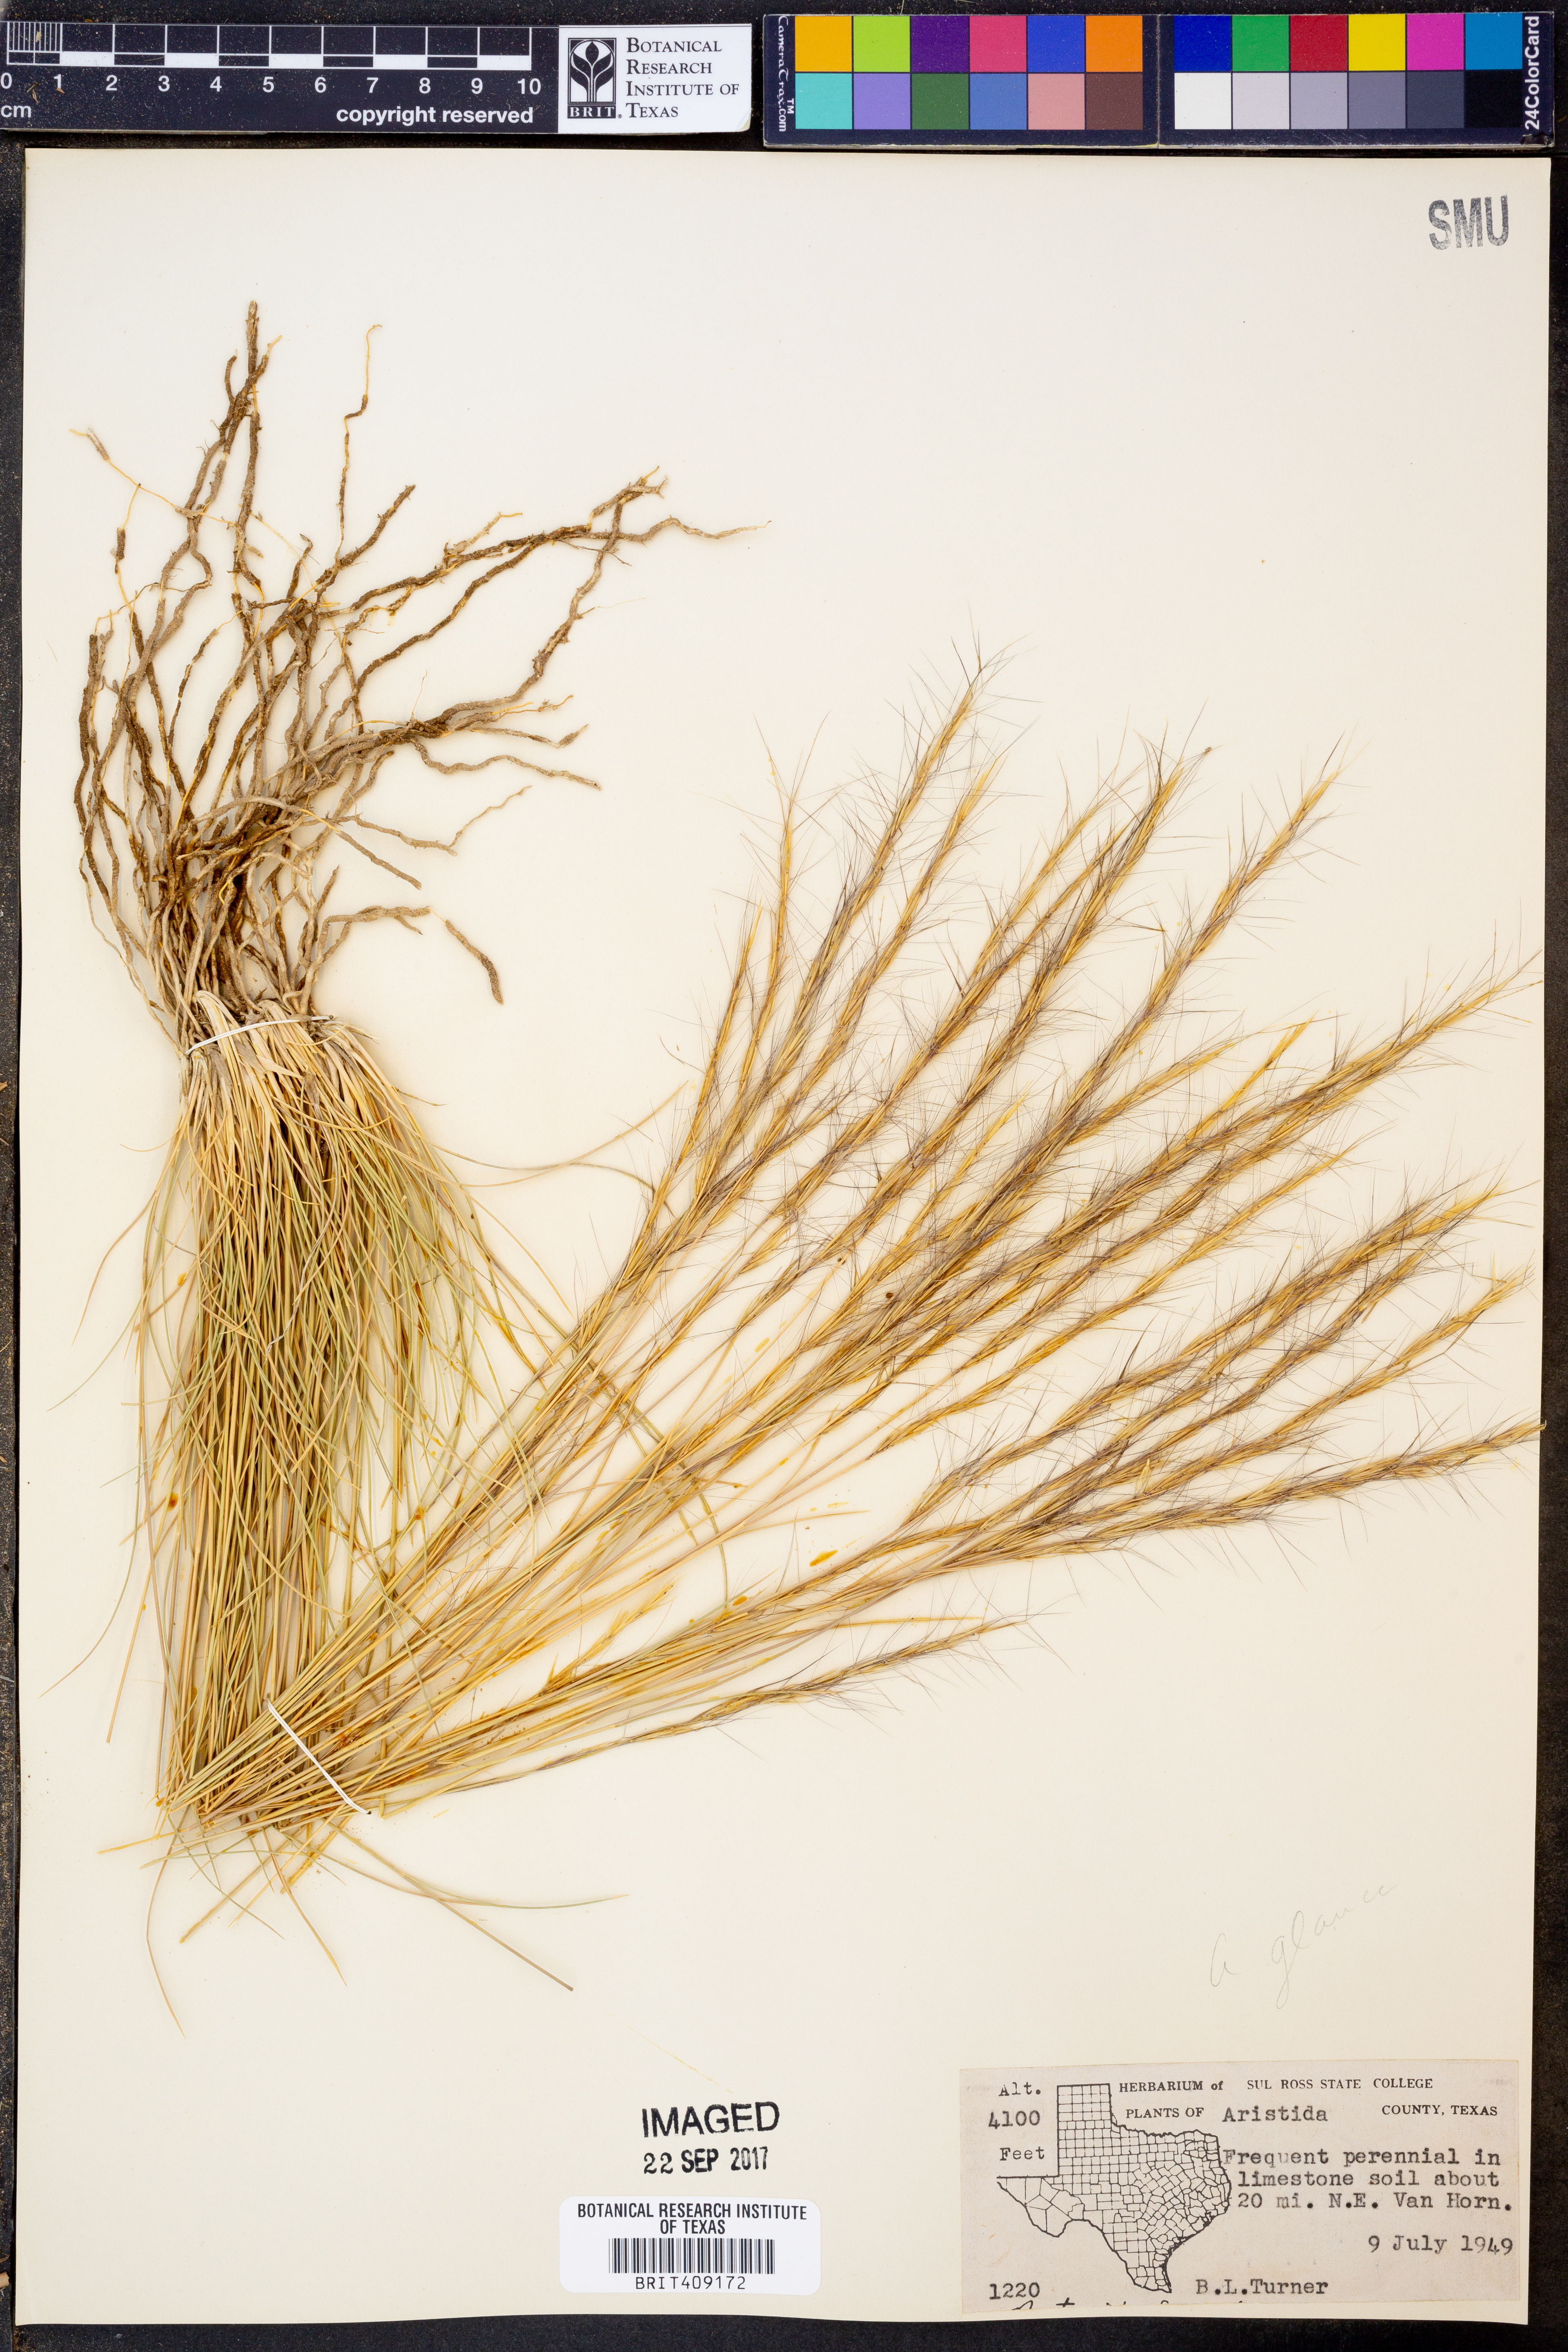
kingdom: Plantae
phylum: Tracheophyta
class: Liliopsida
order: Poales
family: Poaceae
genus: Aristida
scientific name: Aristida glauca
